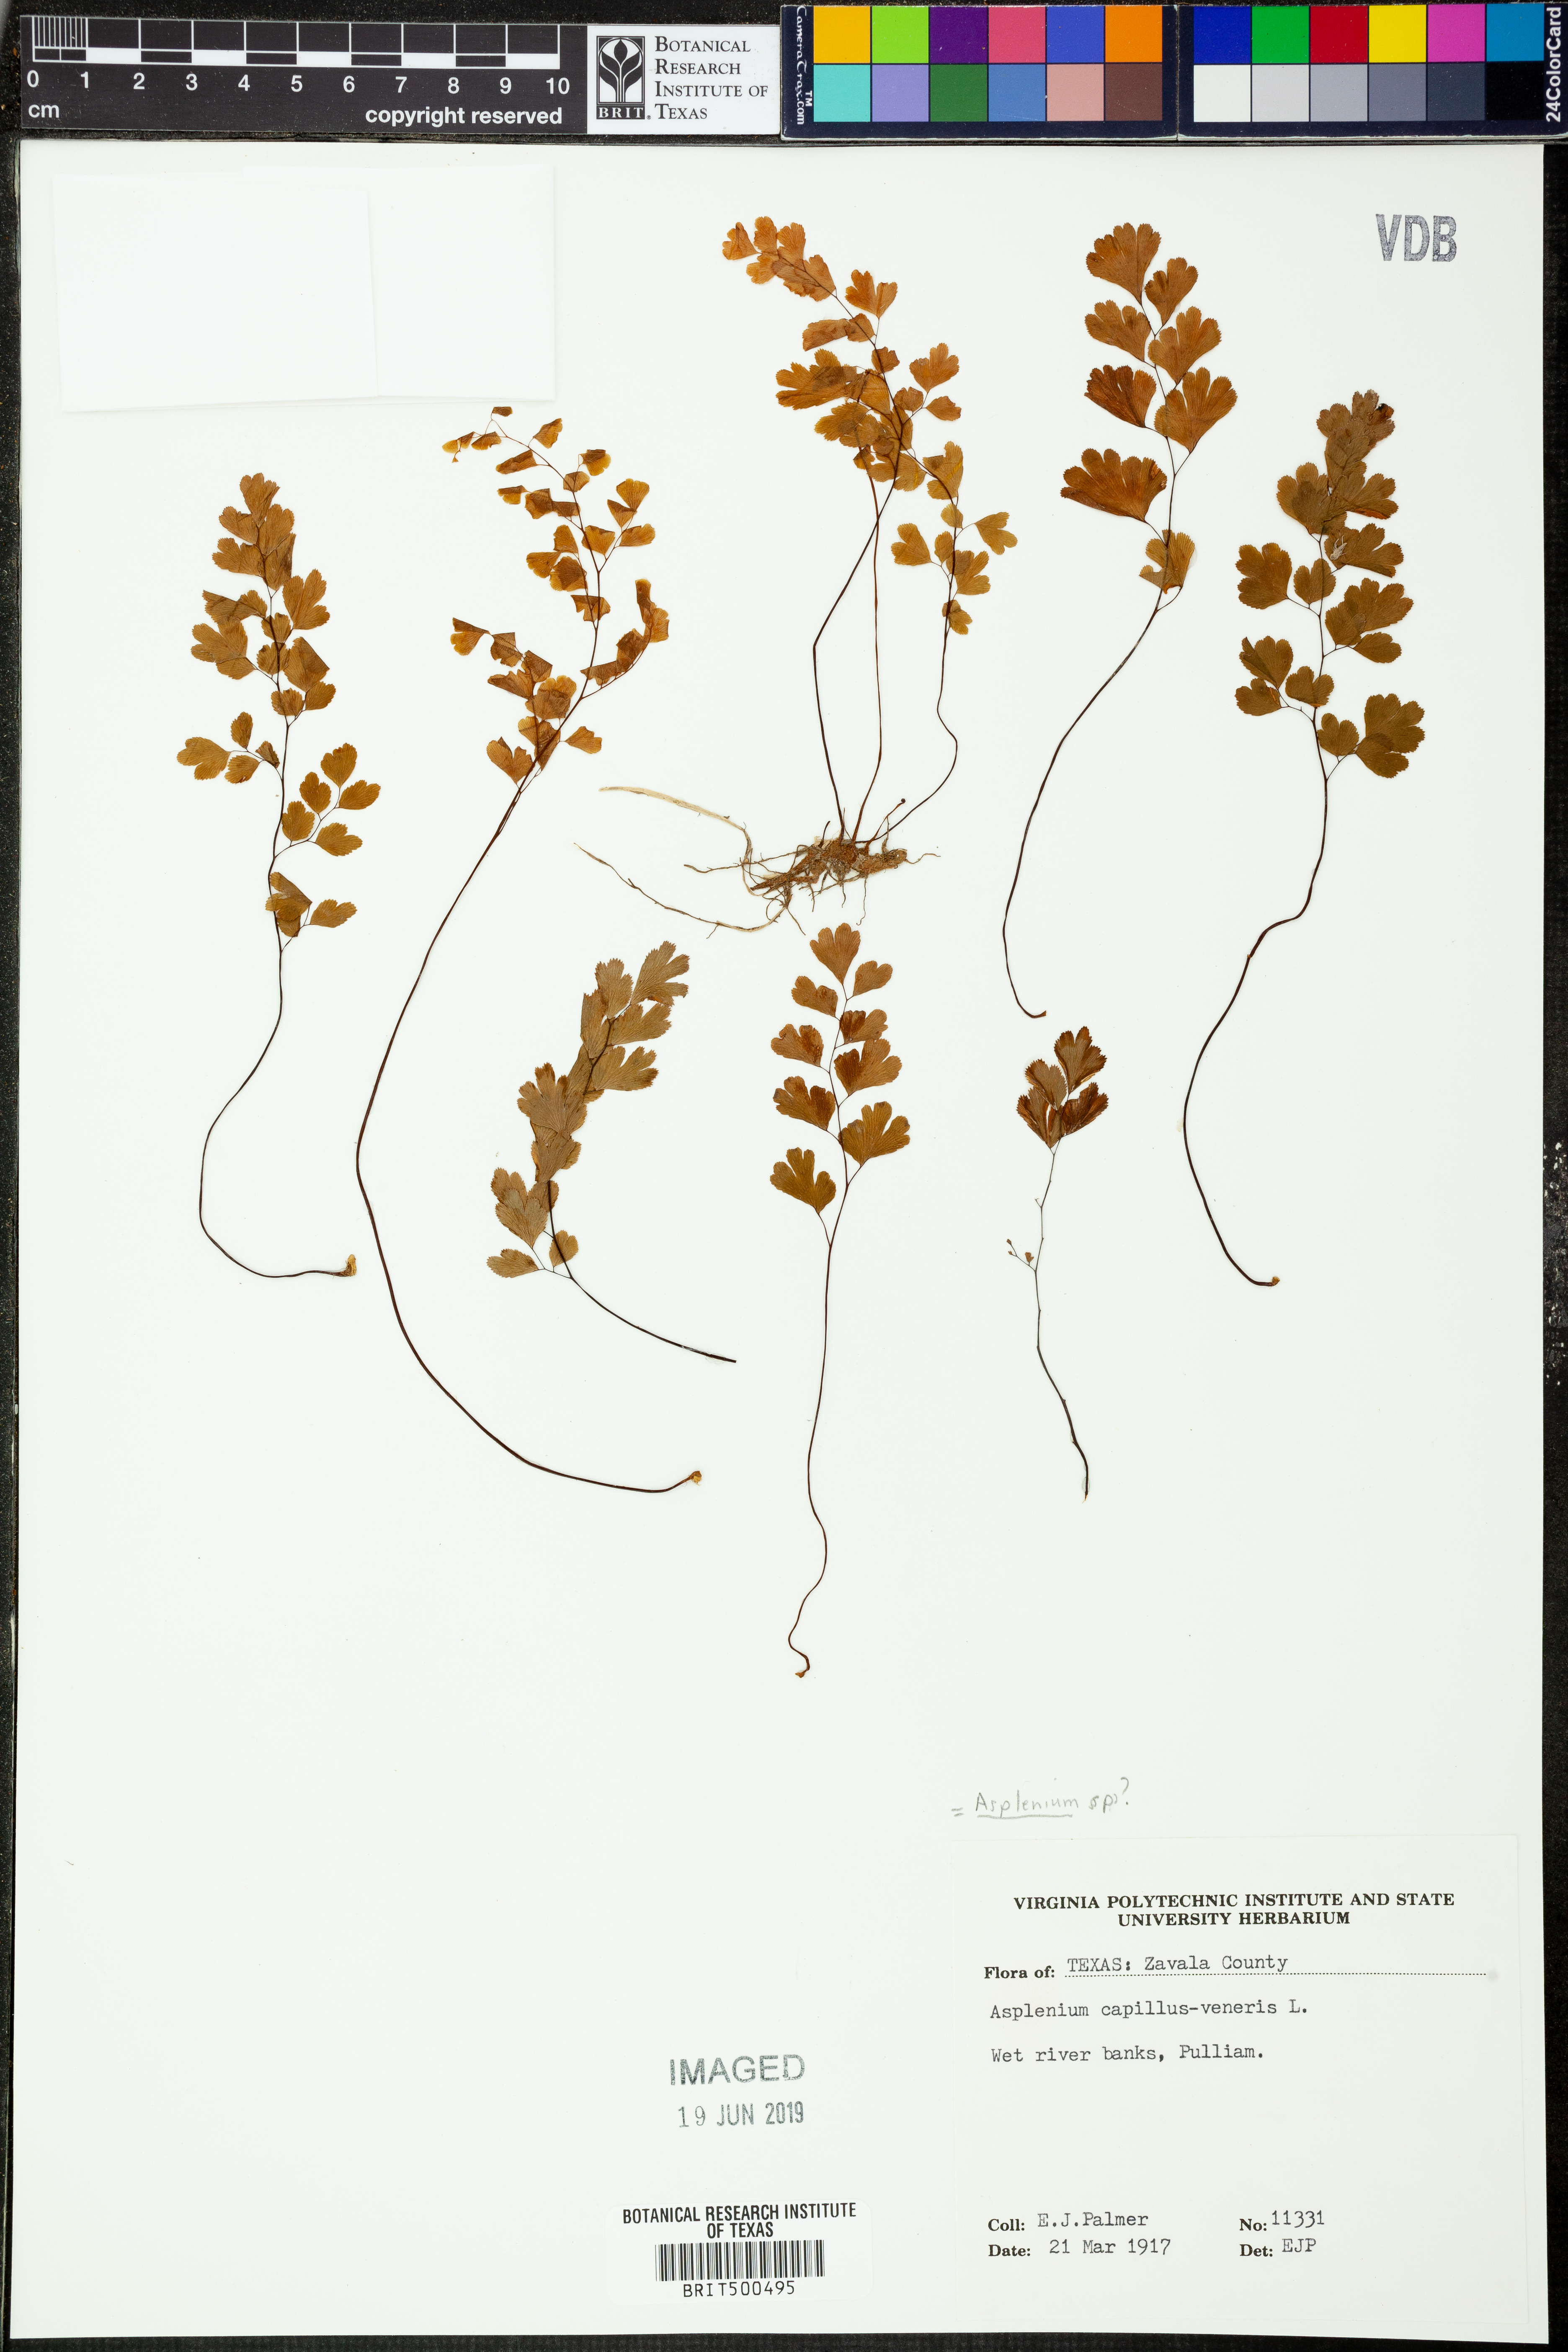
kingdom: Plantae
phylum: Tracheophyta
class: Polypodiopsida
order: Polypodiales
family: Pteridaceae
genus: Adiantum
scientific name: Adiantum capillus-veneris
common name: Maidenhair fern
